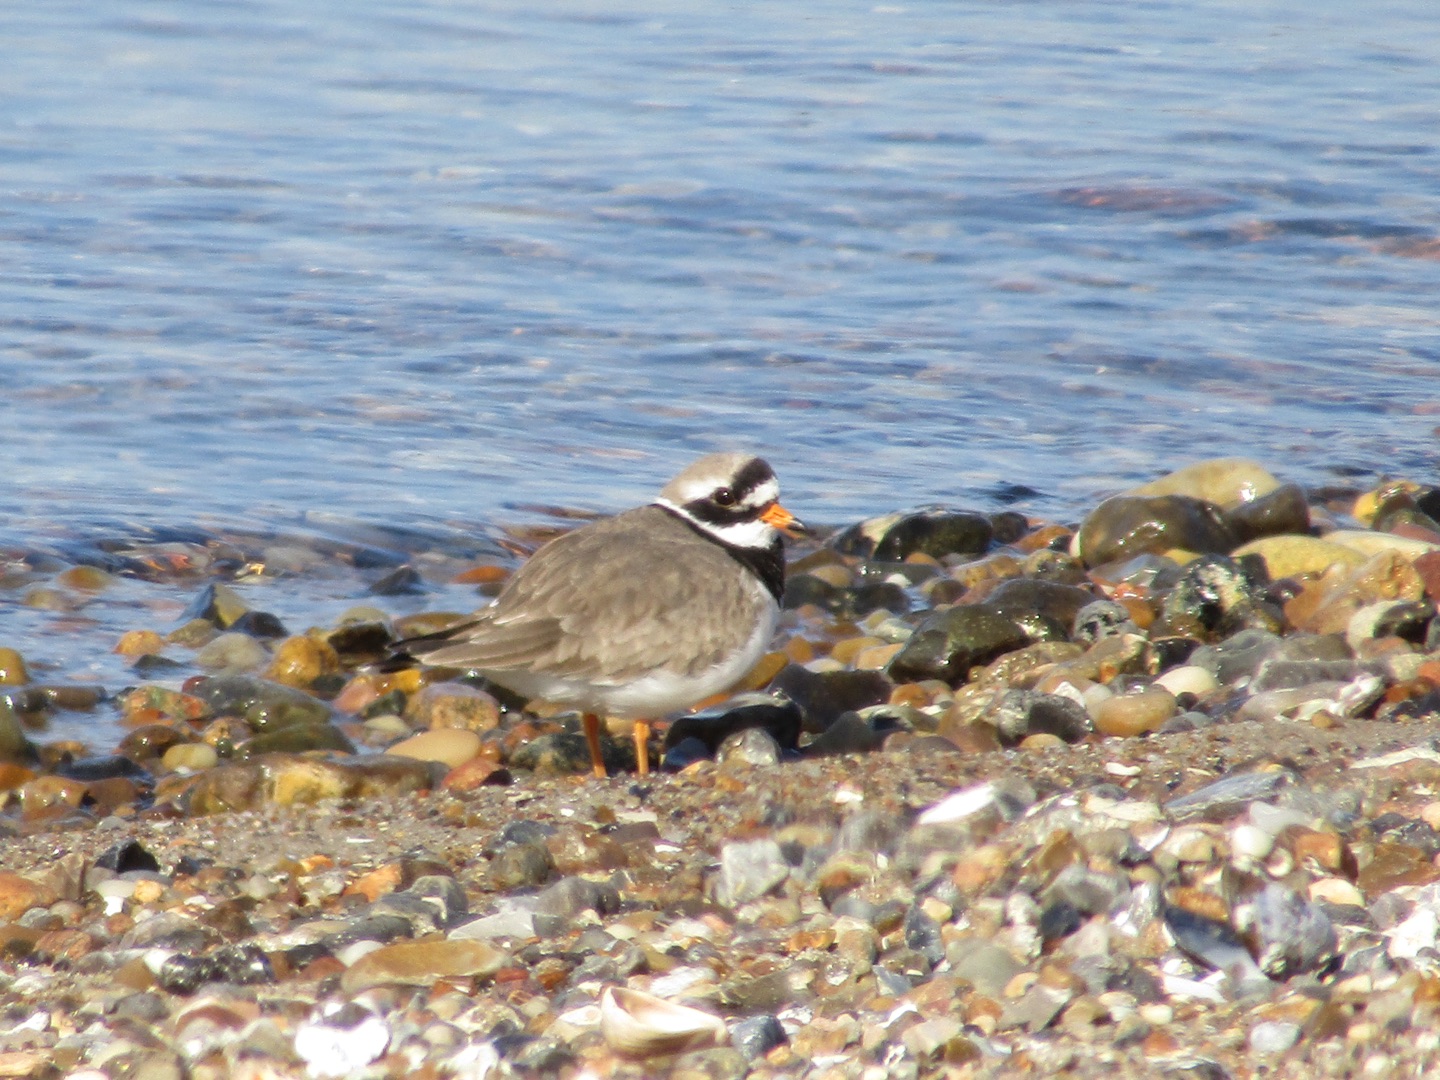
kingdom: Animalia
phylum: Chordata
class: Aves
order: Charadriiformes
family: Charadriidae
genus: Charadrius
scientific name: Charadrius hiaticula
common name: Stor præstekrave
